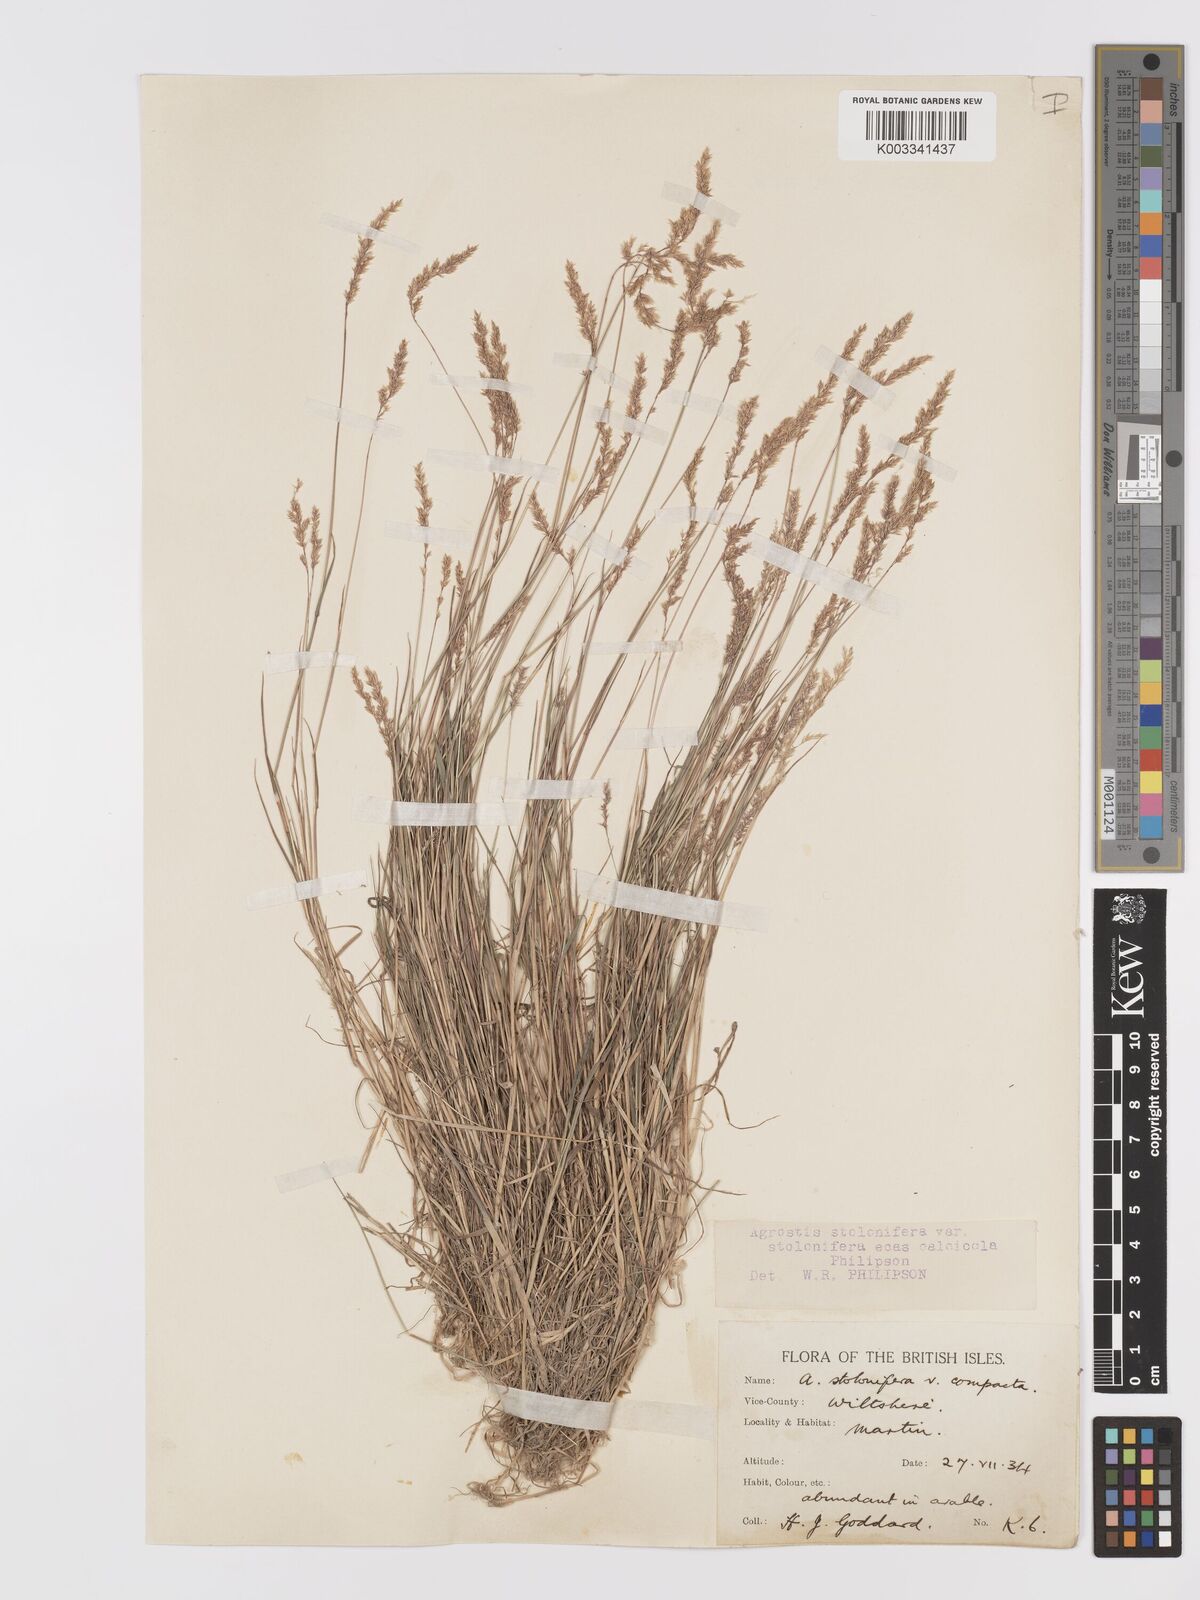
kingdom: Plantae
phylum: Tracheophyta
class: Liliopsida
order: Poales
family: Poaceae
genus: Agrostis
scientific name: Agrostis stolonifera
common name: Creeping bentgrass
